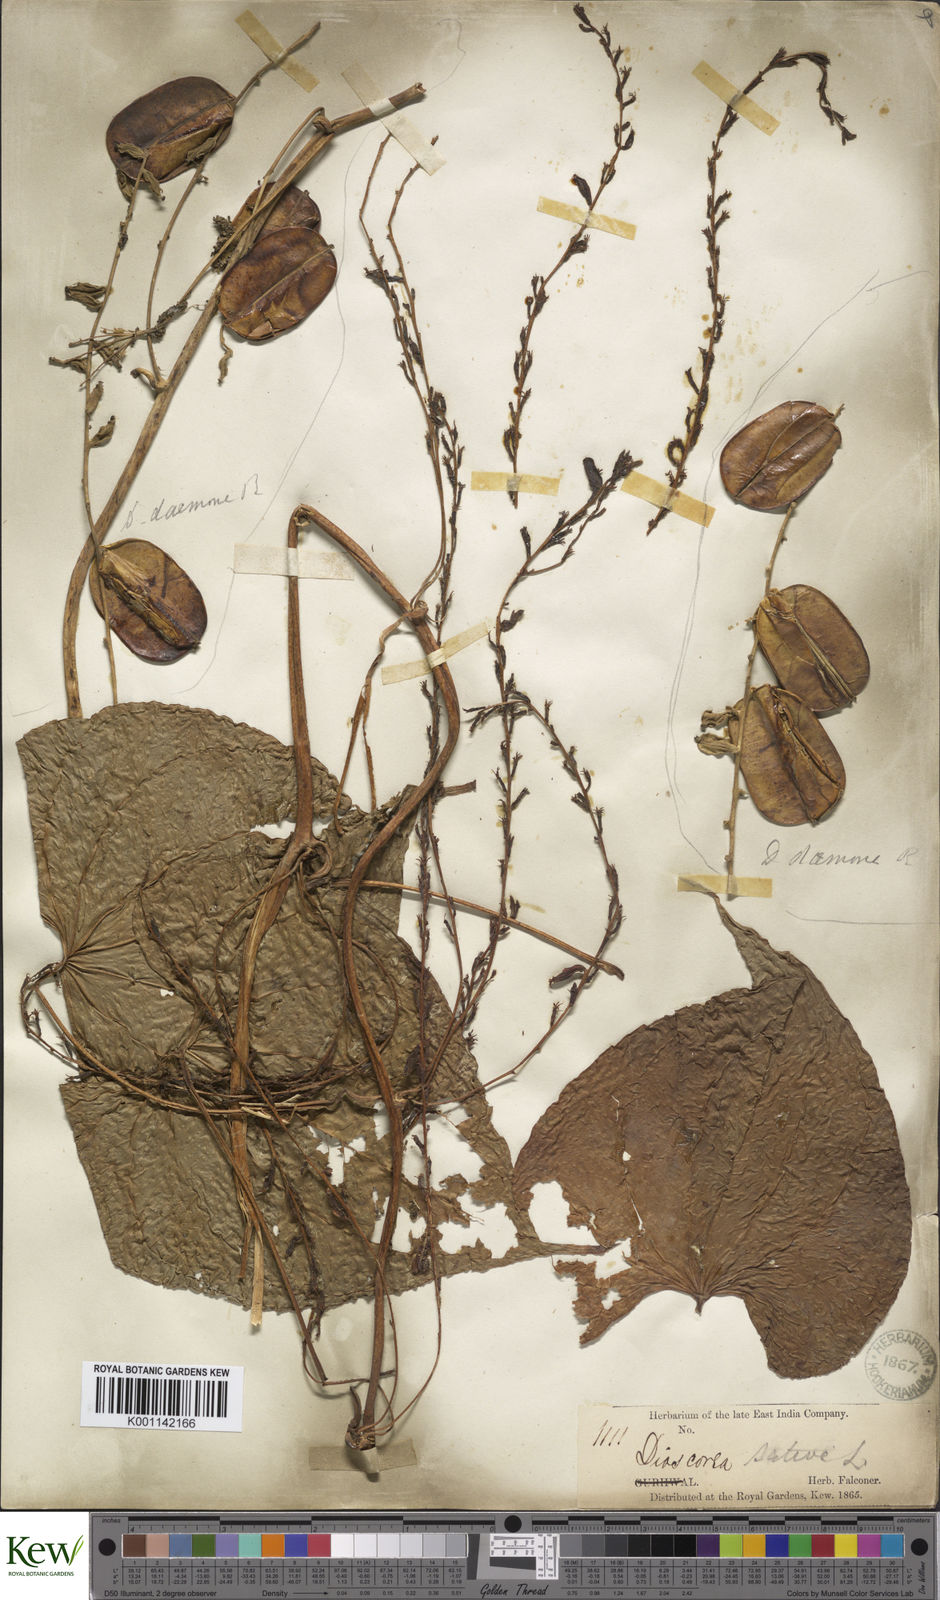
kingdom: Plantae
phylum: Tracheophyta
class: Liliopsida
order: Dioscoreales
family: Dioscoreaceae
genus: Dioscorea
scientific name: Dioscorea bulbifera
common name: Air yam
